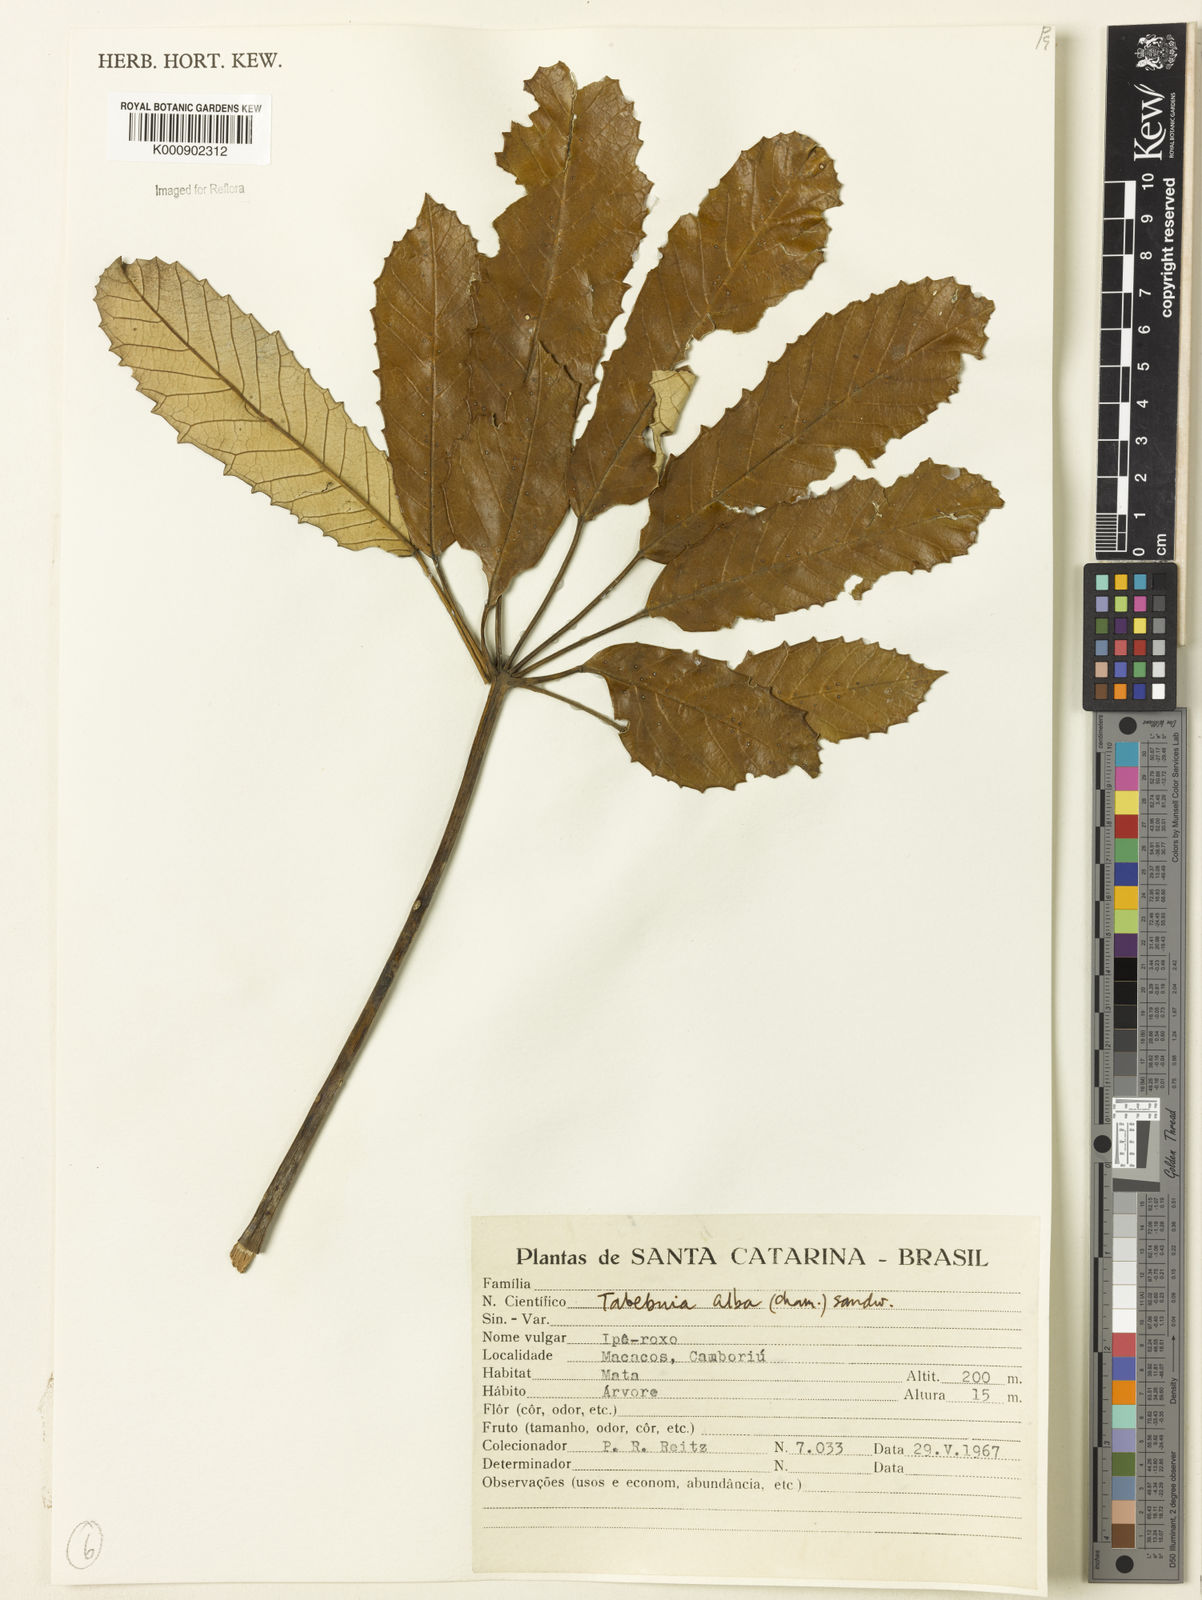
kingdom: Plantae
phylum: Tracheophyta
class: Magnoliopsida
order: Lamiales
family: Bignoniaceae
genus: Handroanthus
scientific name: Handroanthus albus
